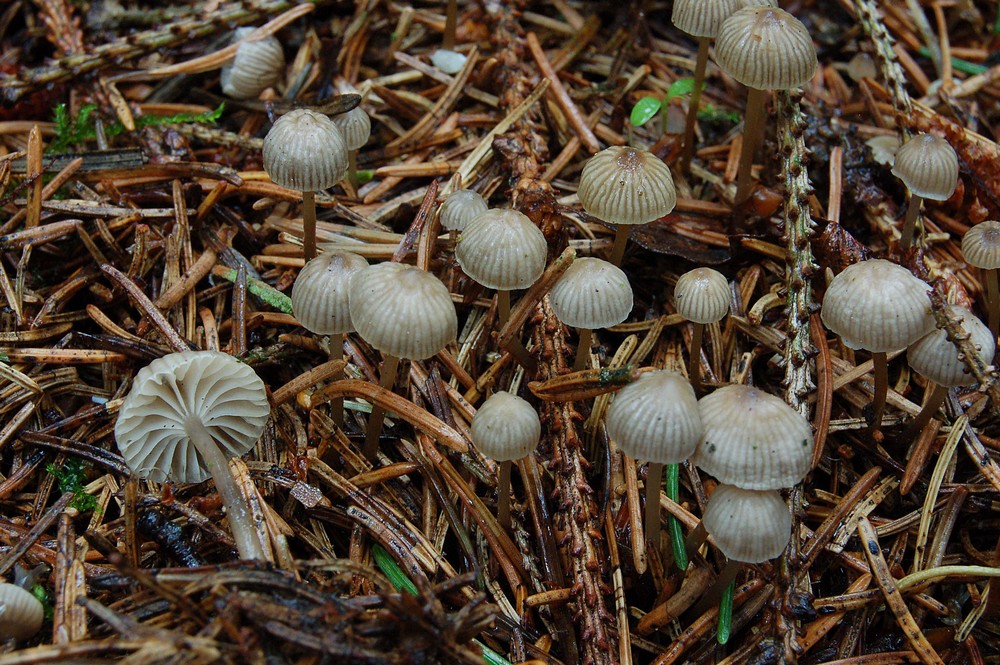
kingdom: Fungi
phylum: Basidiomycota
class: Agaricomycetes
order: Agaricales
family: Mycenaceae
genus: Mycena
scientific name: Mycena vulgaris
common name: klæbrig huesvamp
